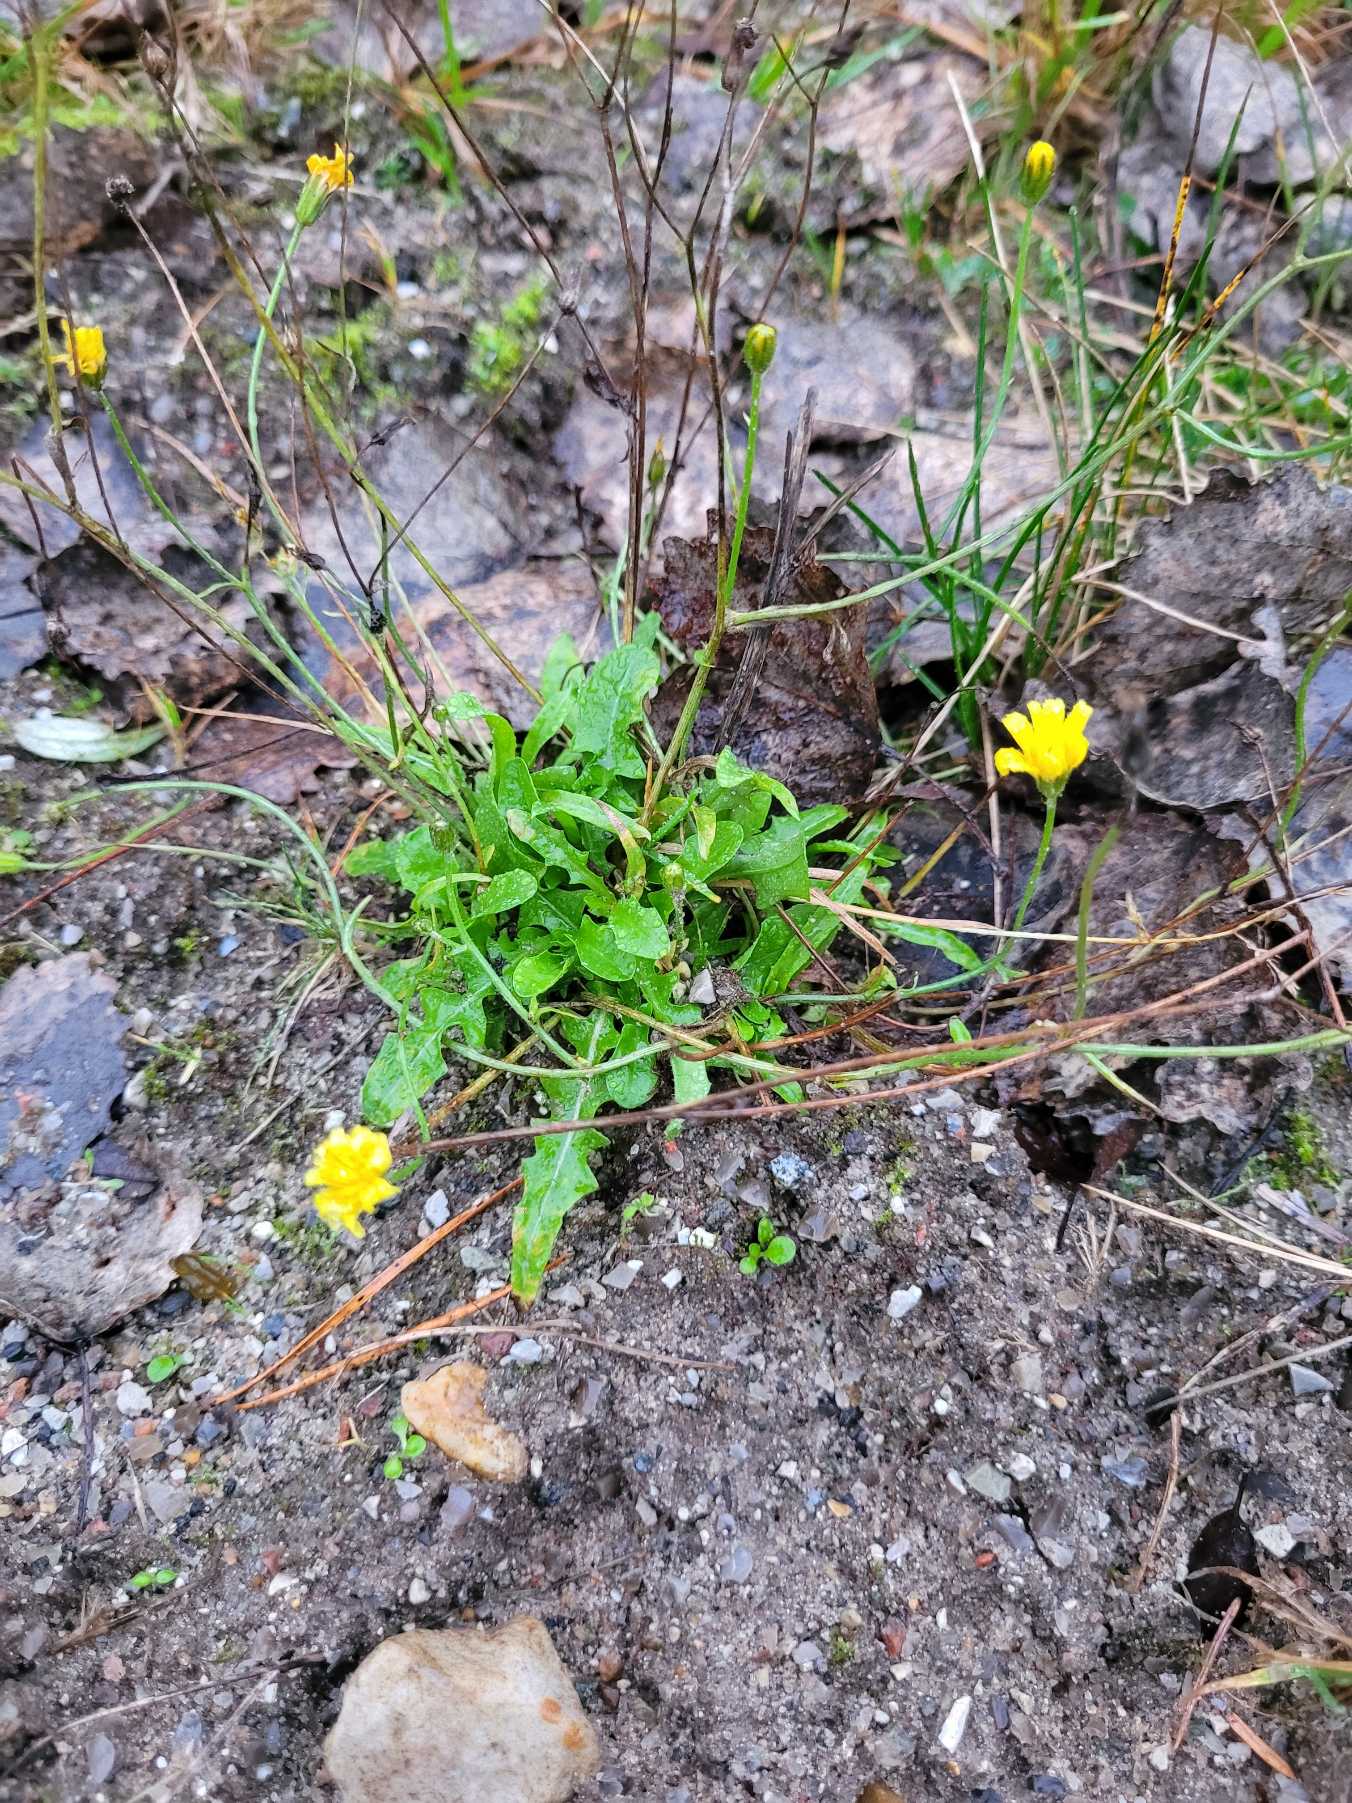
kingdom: Plantae
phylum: Tracheophyta
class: Magnoliopsida
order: Asterales
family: Asteraceae
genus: Crepis
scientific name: Crepis capillaris
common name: Grøn høgeskæg
